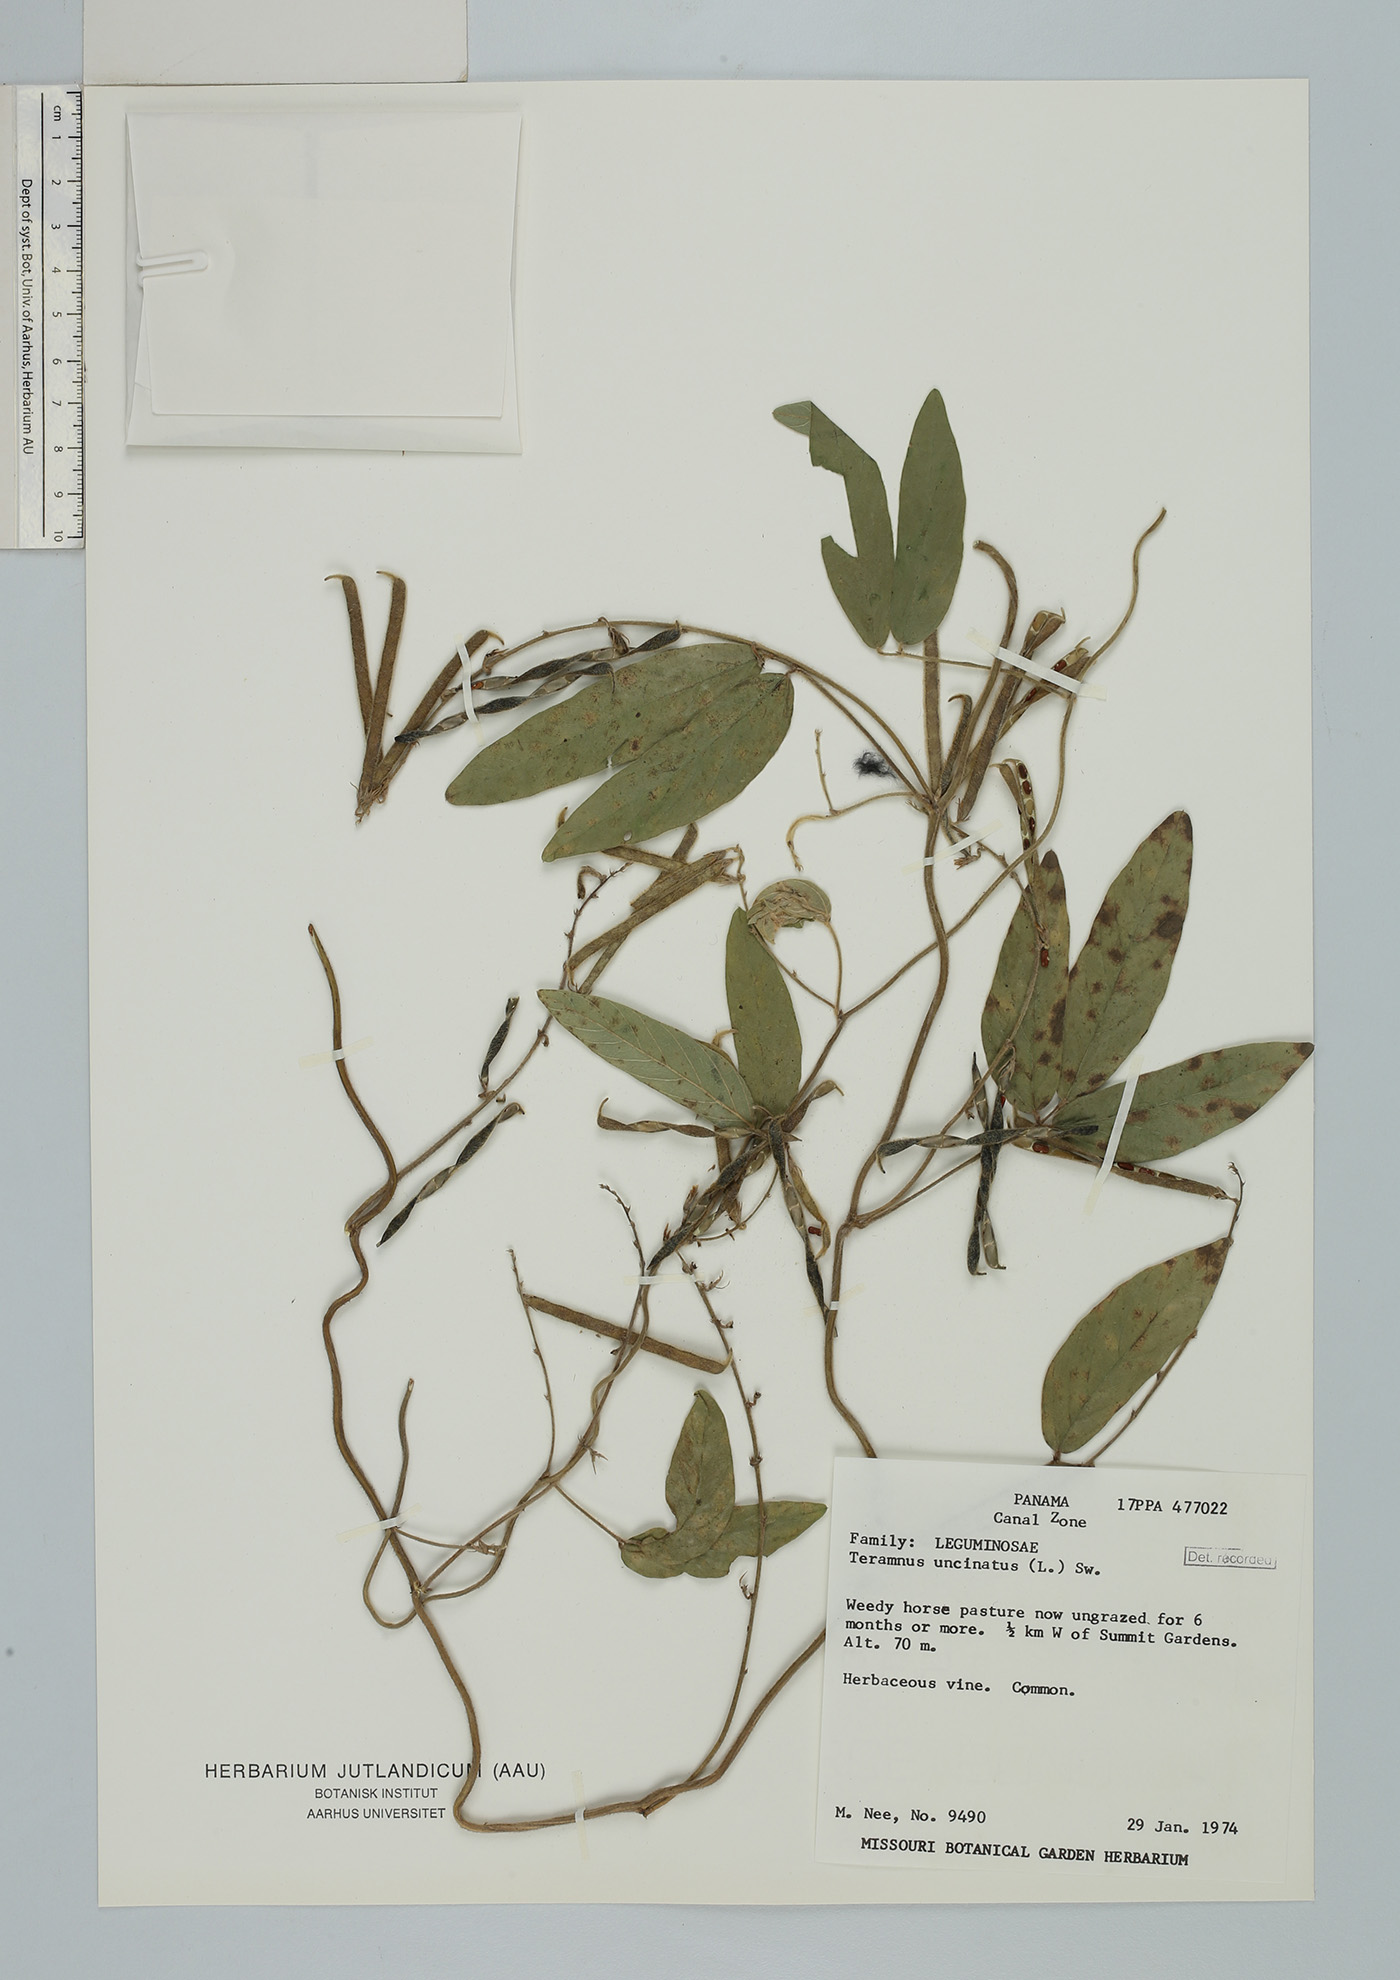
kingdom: Plantae
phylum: Tracheophyta
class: Magnoliopsida
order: Fabales
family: Fabaceae
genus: Teramnus
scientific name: Teramnus uncinatus
